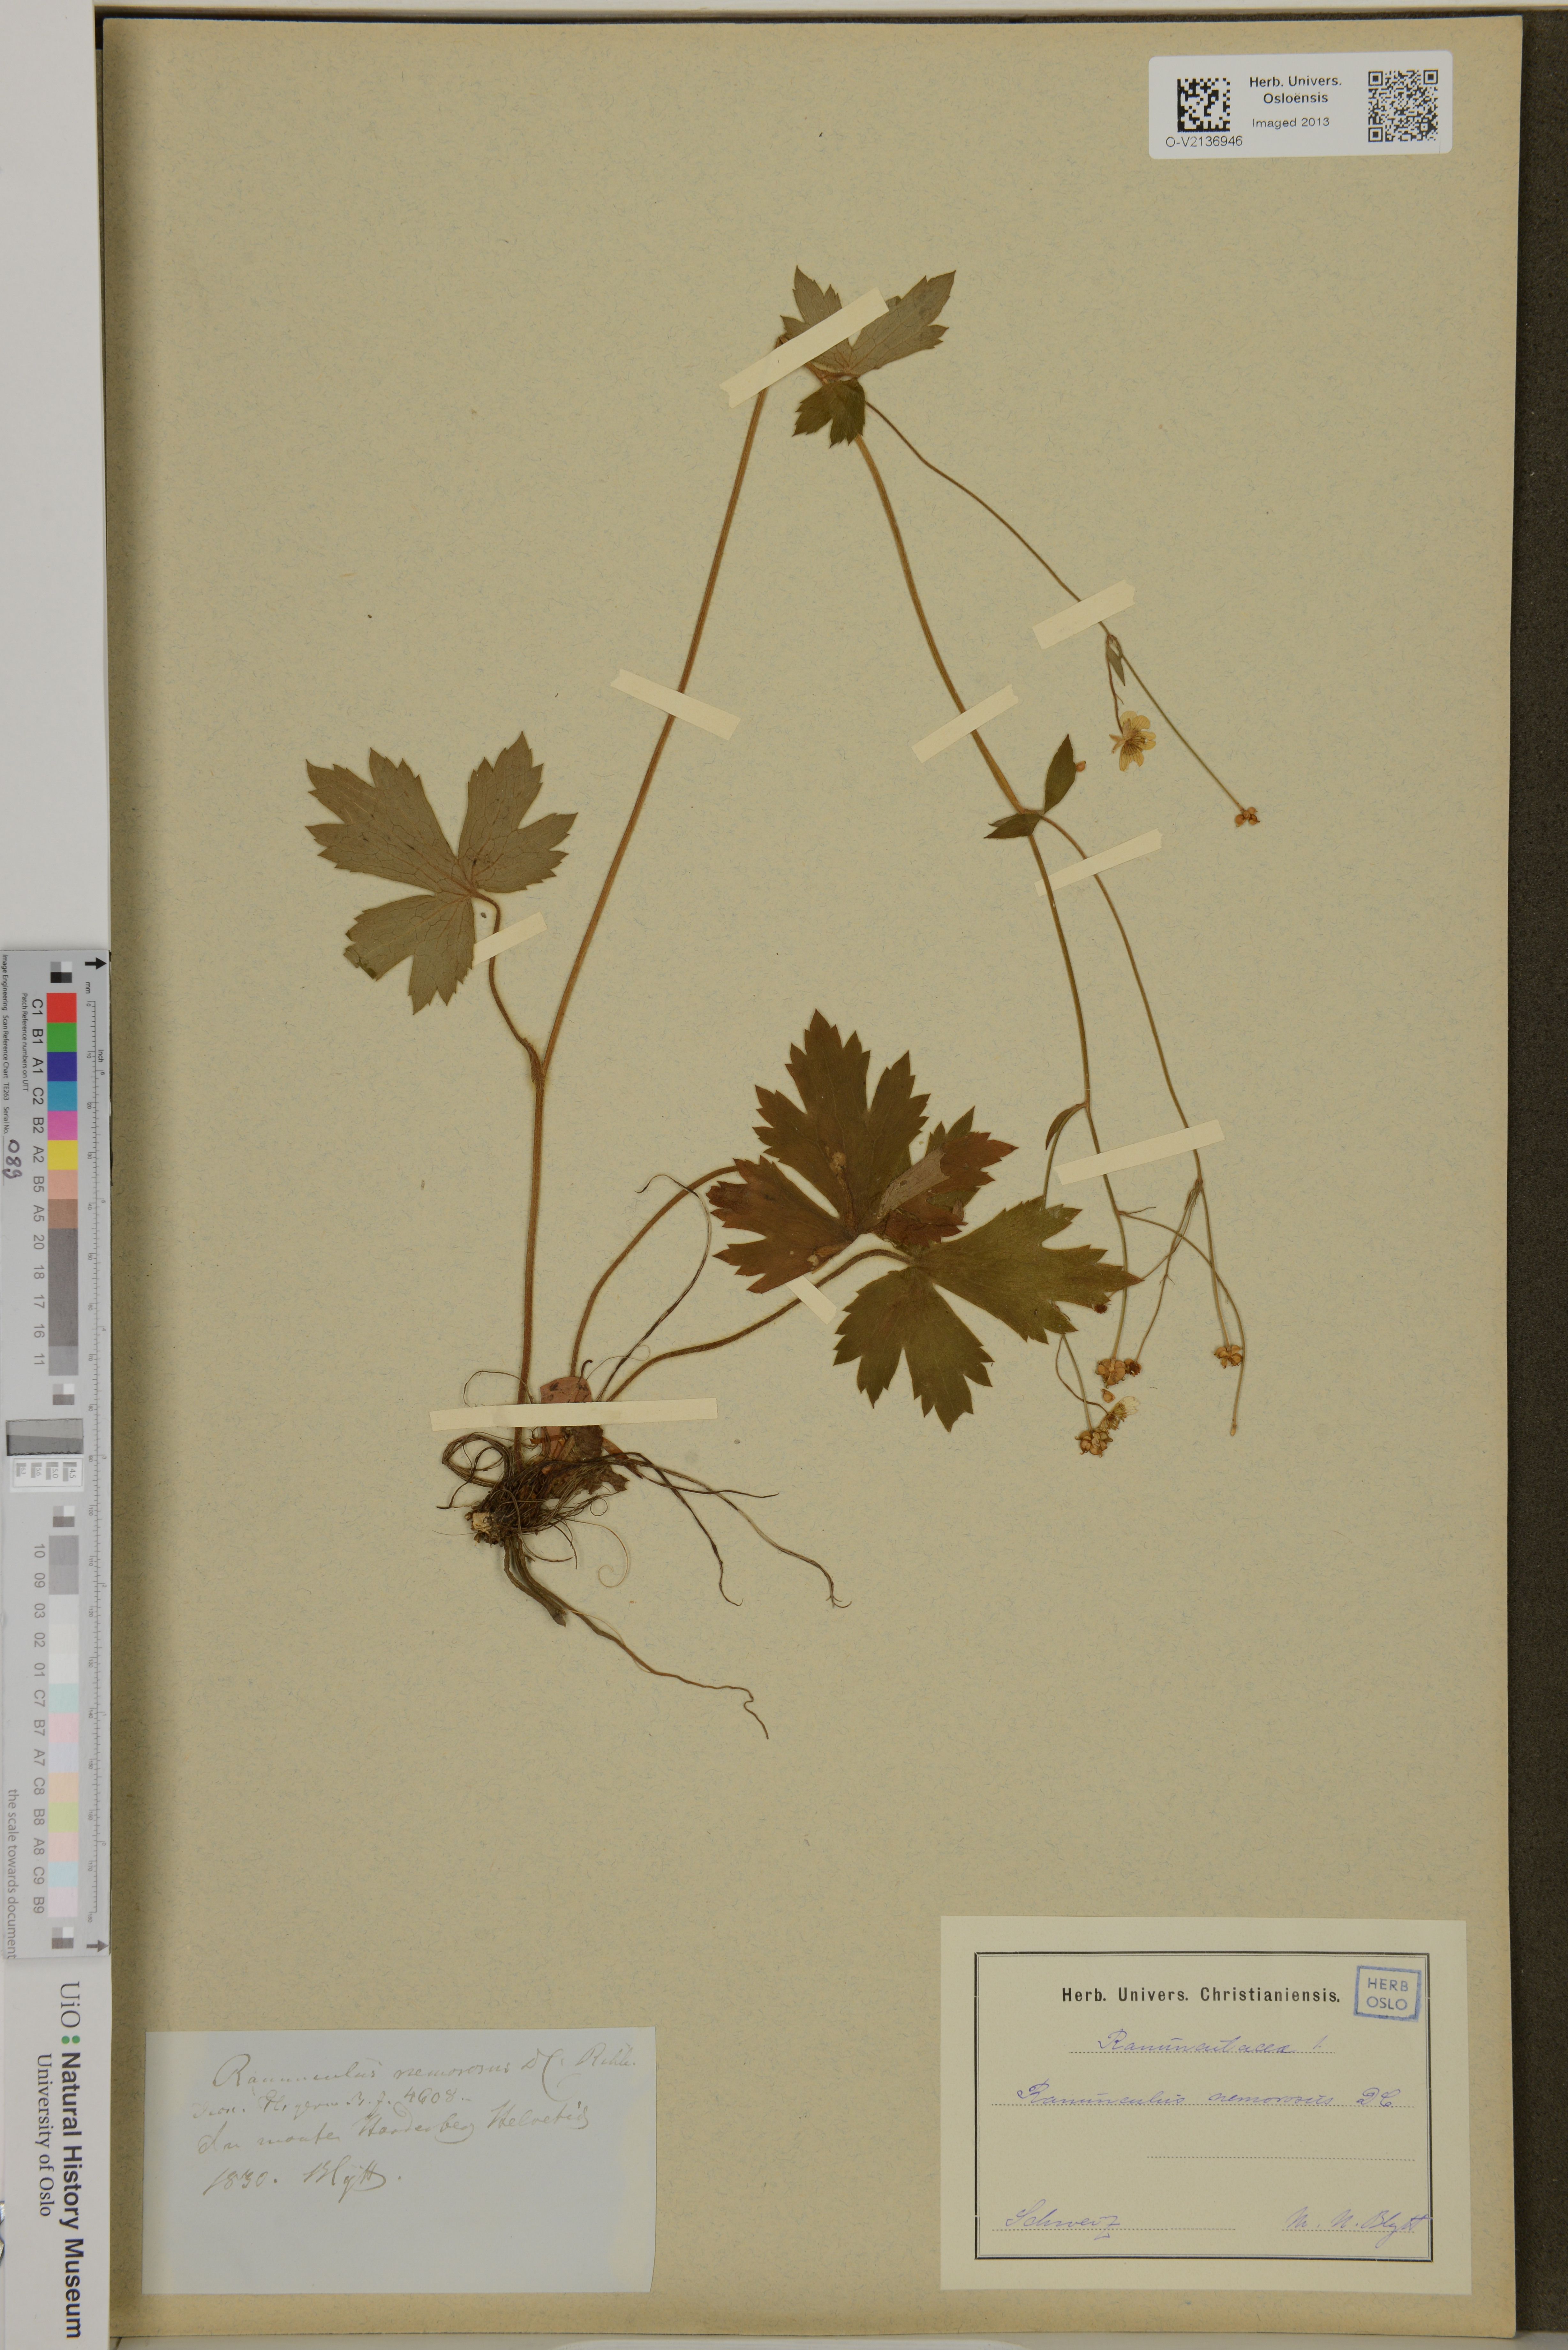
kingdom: Plantae
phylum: Tracheophyta
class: Magnoliopsida
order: Ranunculales
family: Ranunculaceae
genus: Ranunculus
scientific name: Ranunculus polyanthemos
